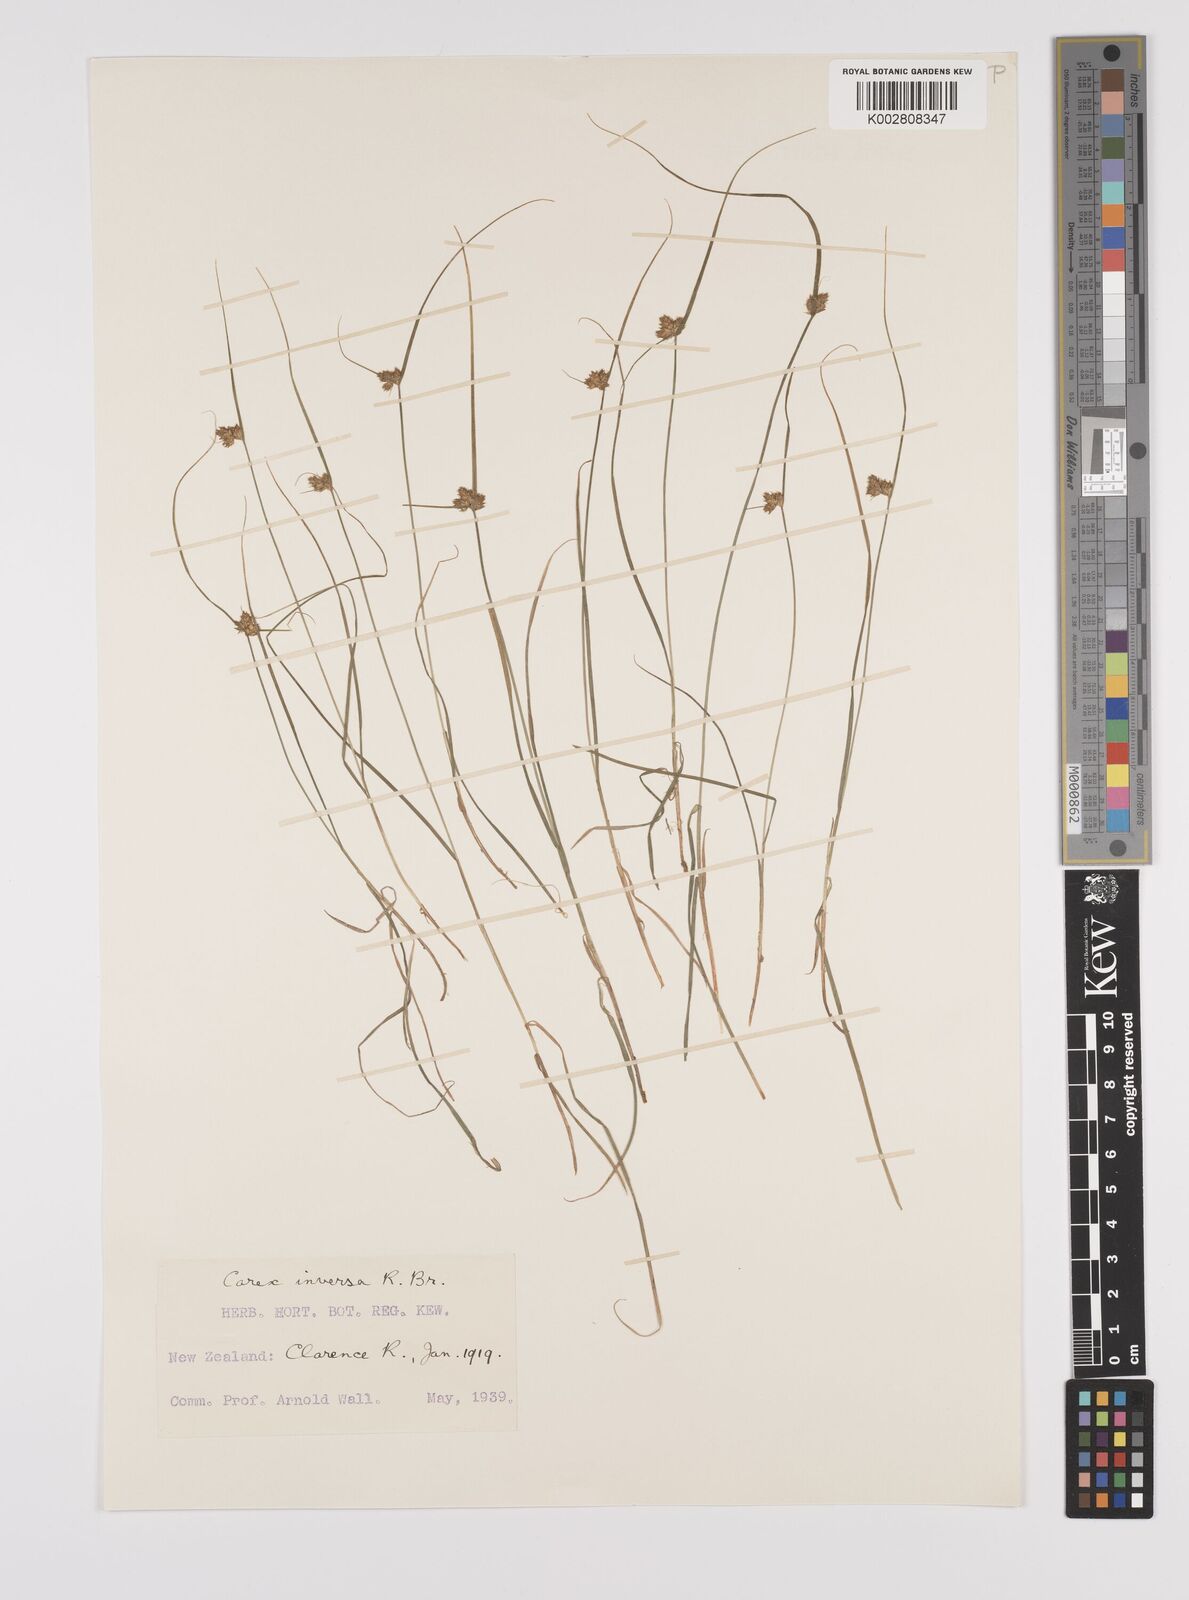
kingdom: Plantae
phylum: Tracheophyta
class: Liliopsida
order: Poales
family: Cyperaceae
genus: Carex
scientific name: Carex inversa
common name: Knob sedge
